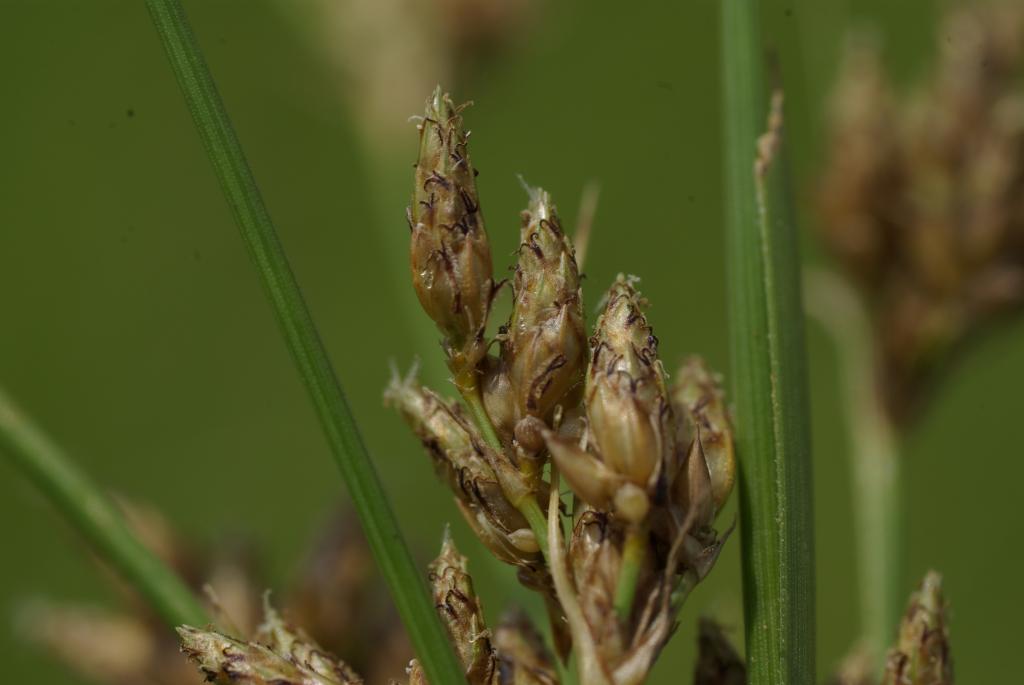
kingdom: Plantae
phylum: Tracheophyta
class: Liliopsida
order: Poales
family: Cyperaceae
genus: Fimbristylis
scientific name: Fimbristylis dichotoma
